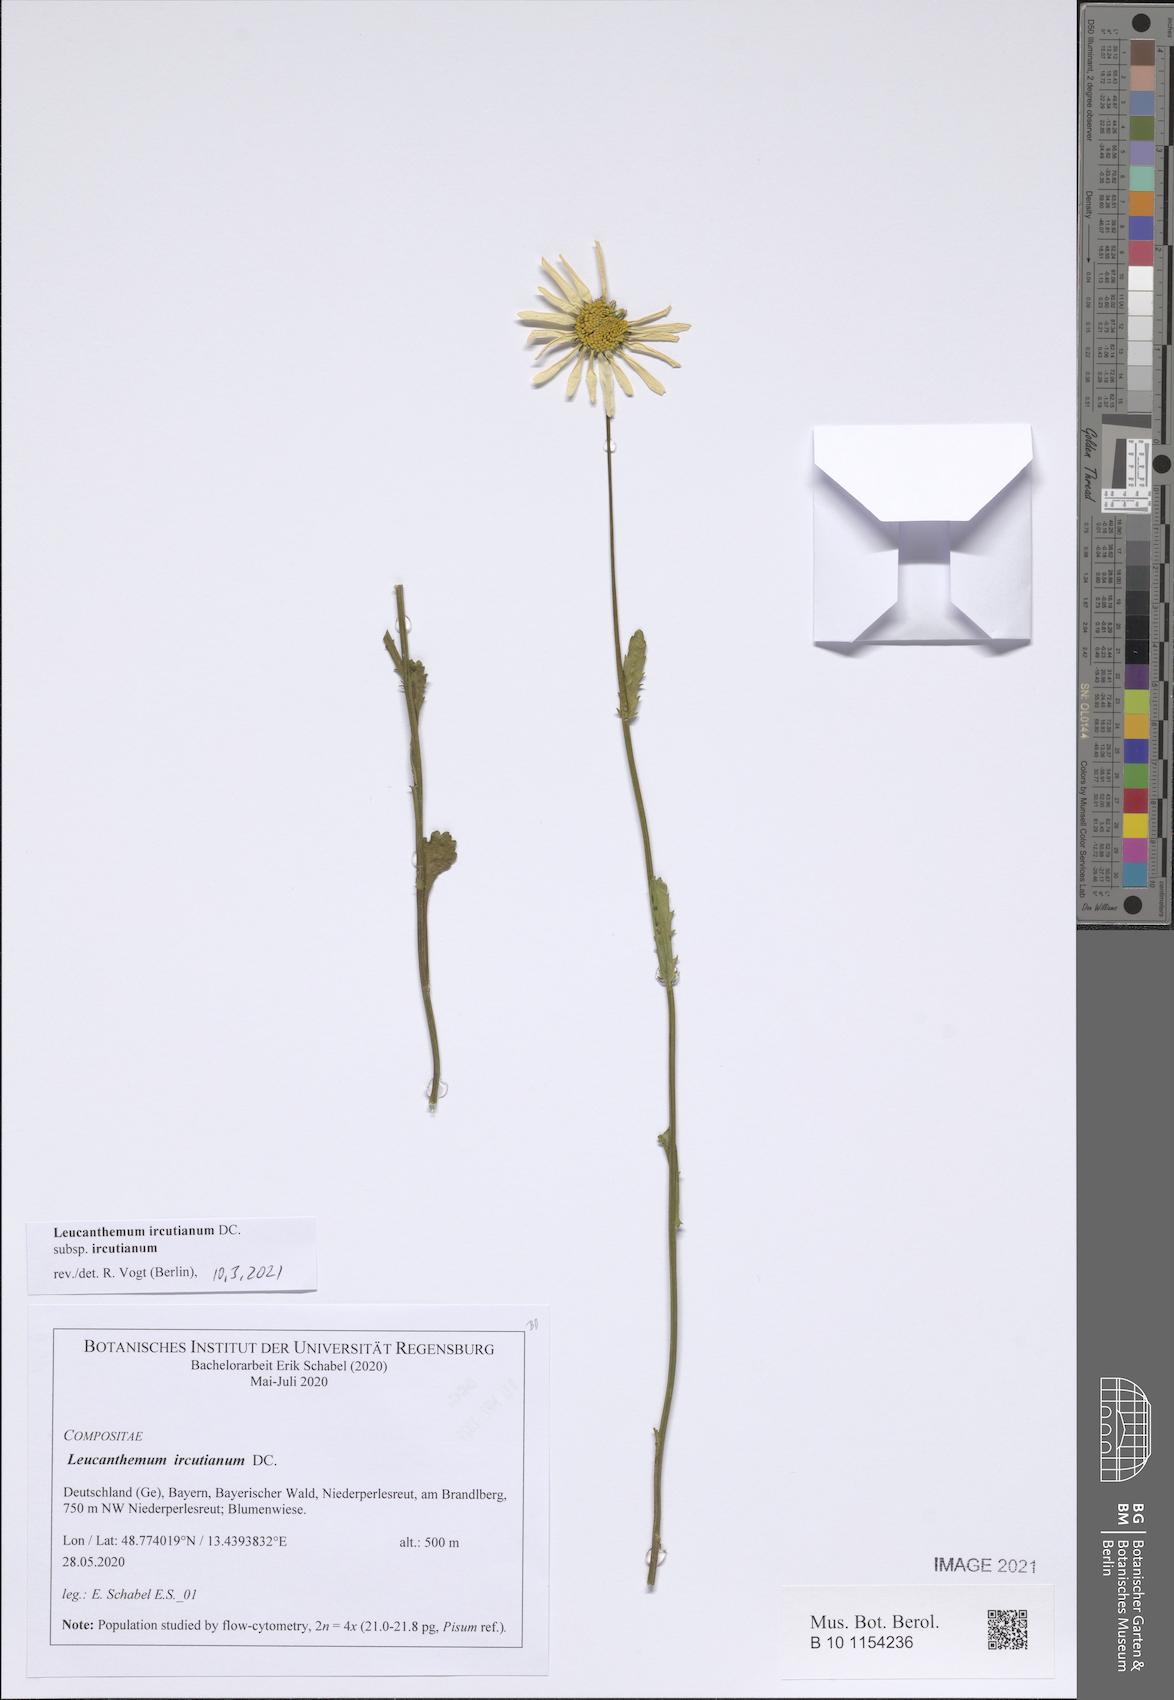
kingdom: Plantae
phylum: Tracheophyta
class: Magnoliopsida
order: Asterales
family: Asteraceae
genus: Leucanthemum
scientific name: Leucanthemum ircutianum
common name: Daisy
